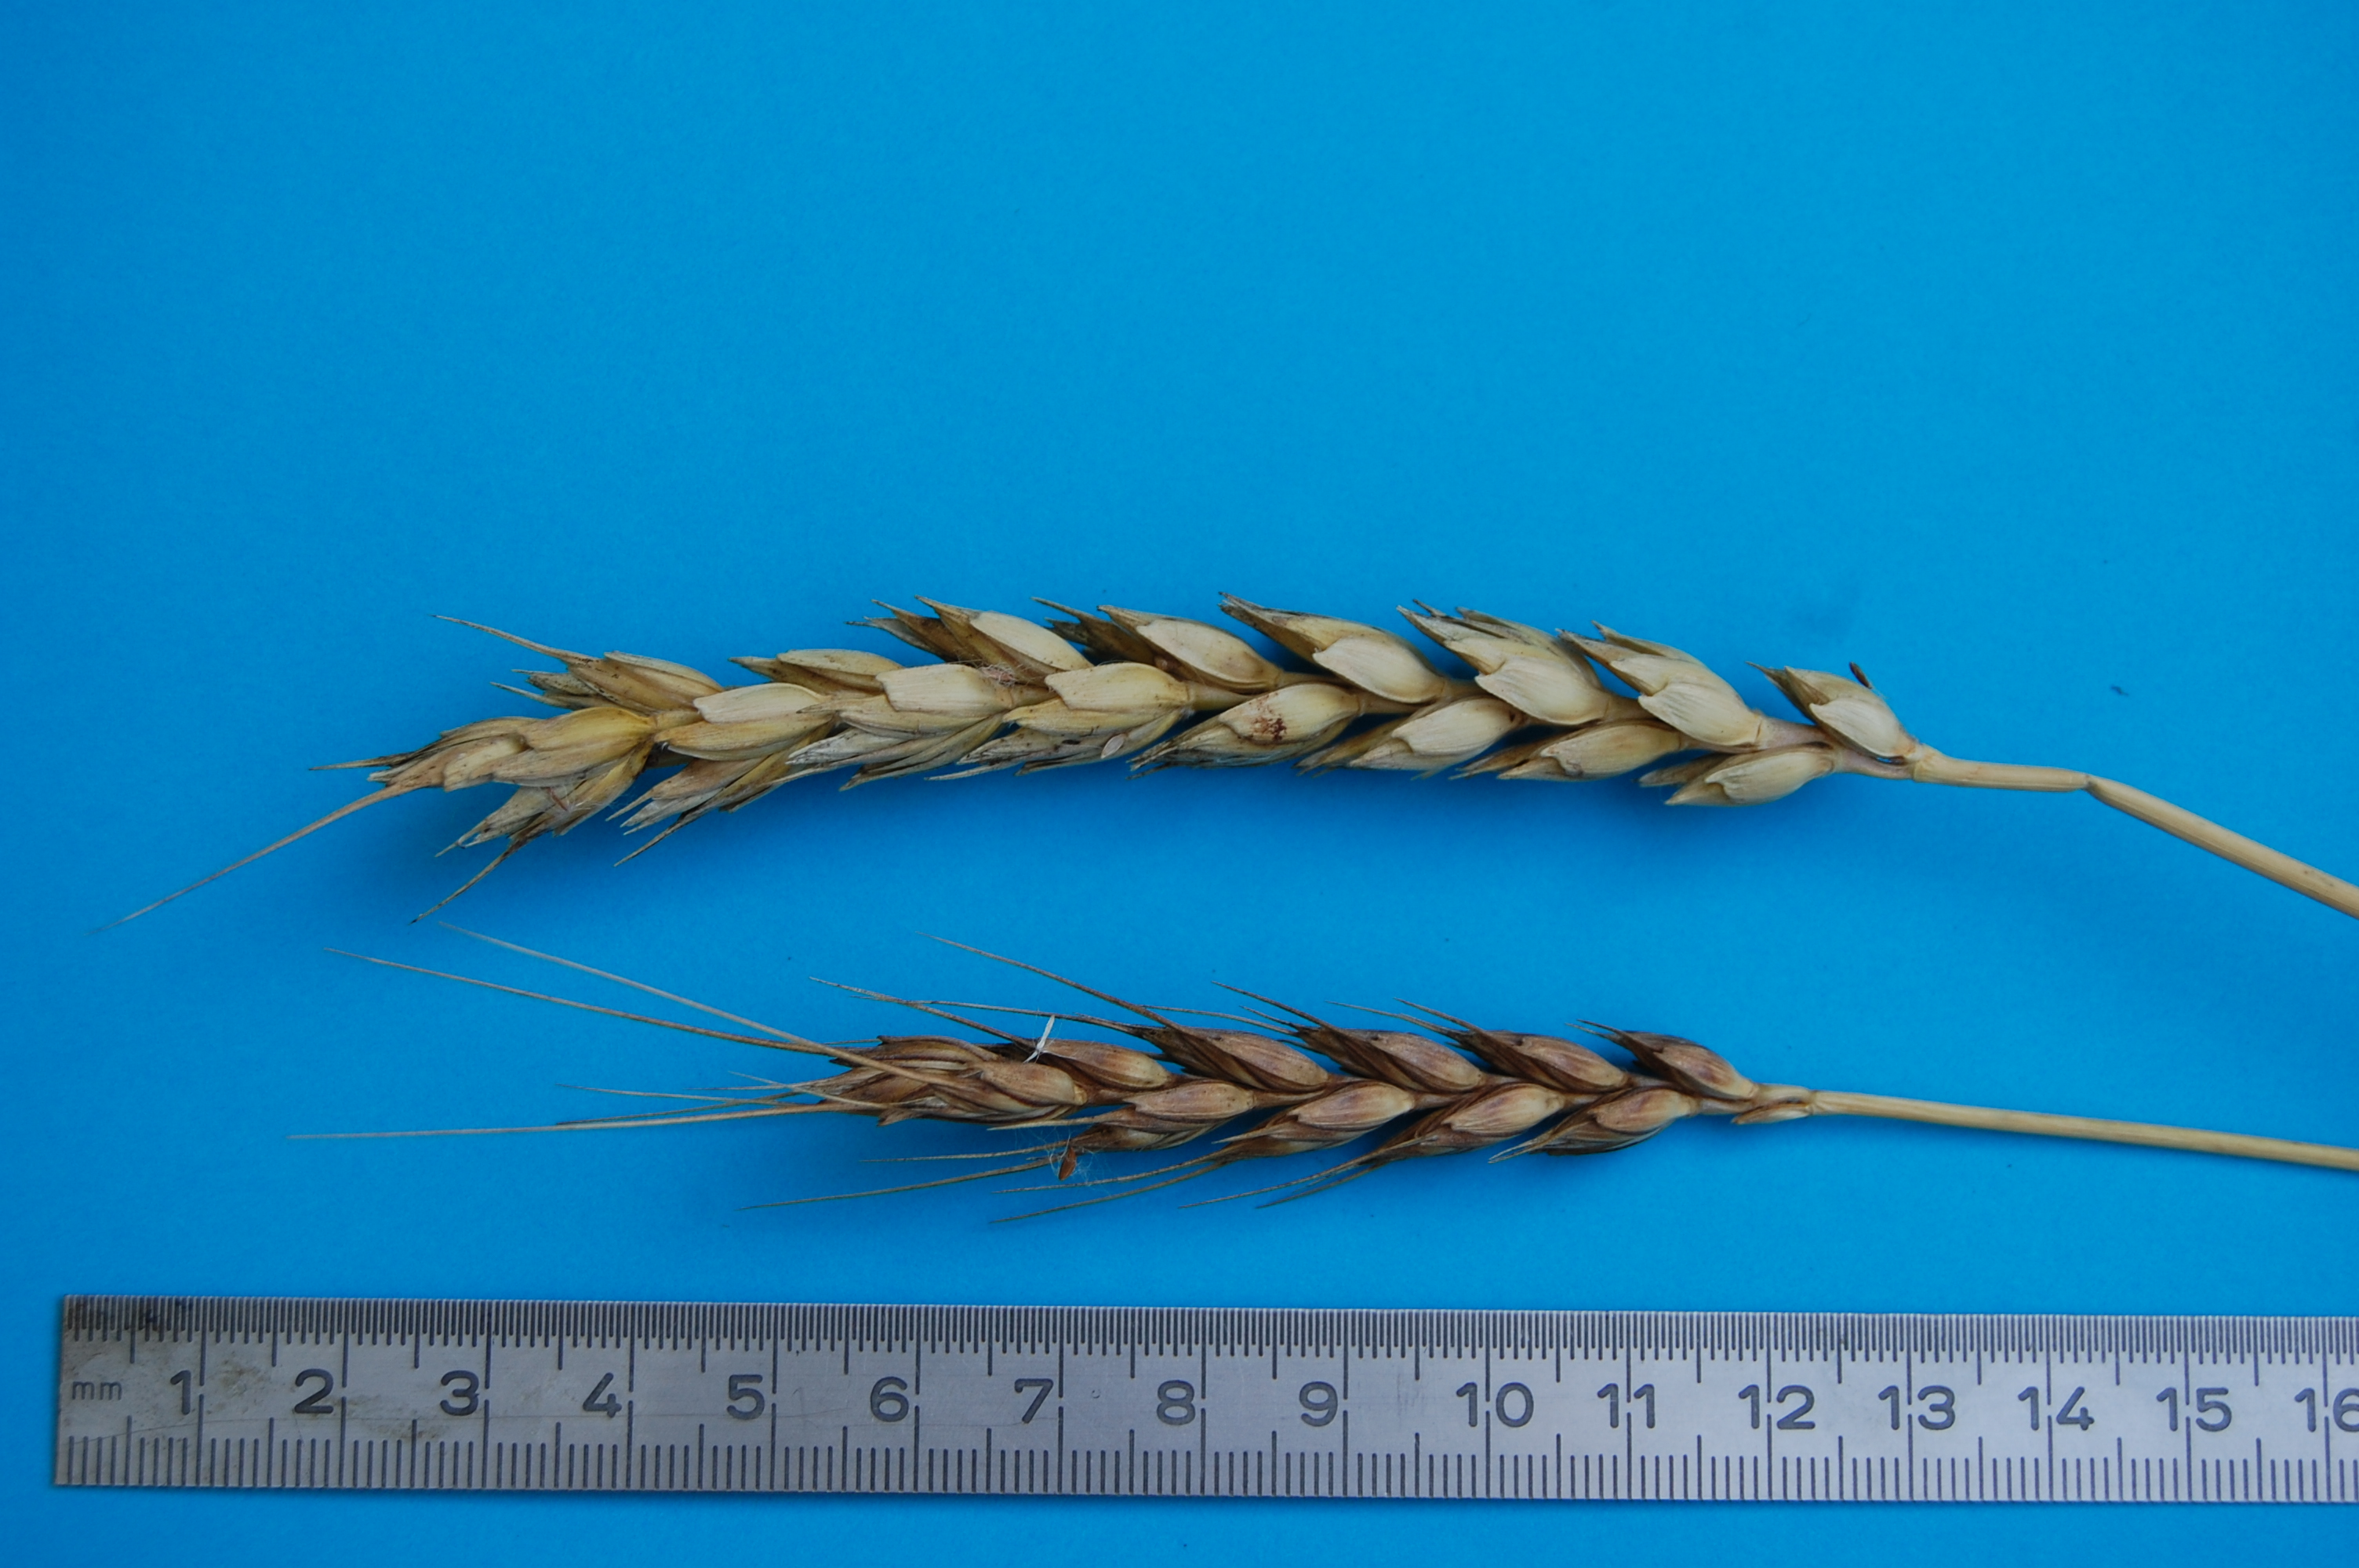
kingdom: Plantae
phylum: Tracheophyta
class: Liliopsida
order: Poales
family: Poaceae
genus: Triticum
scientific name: Triticum aestivum
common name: Common wheat
